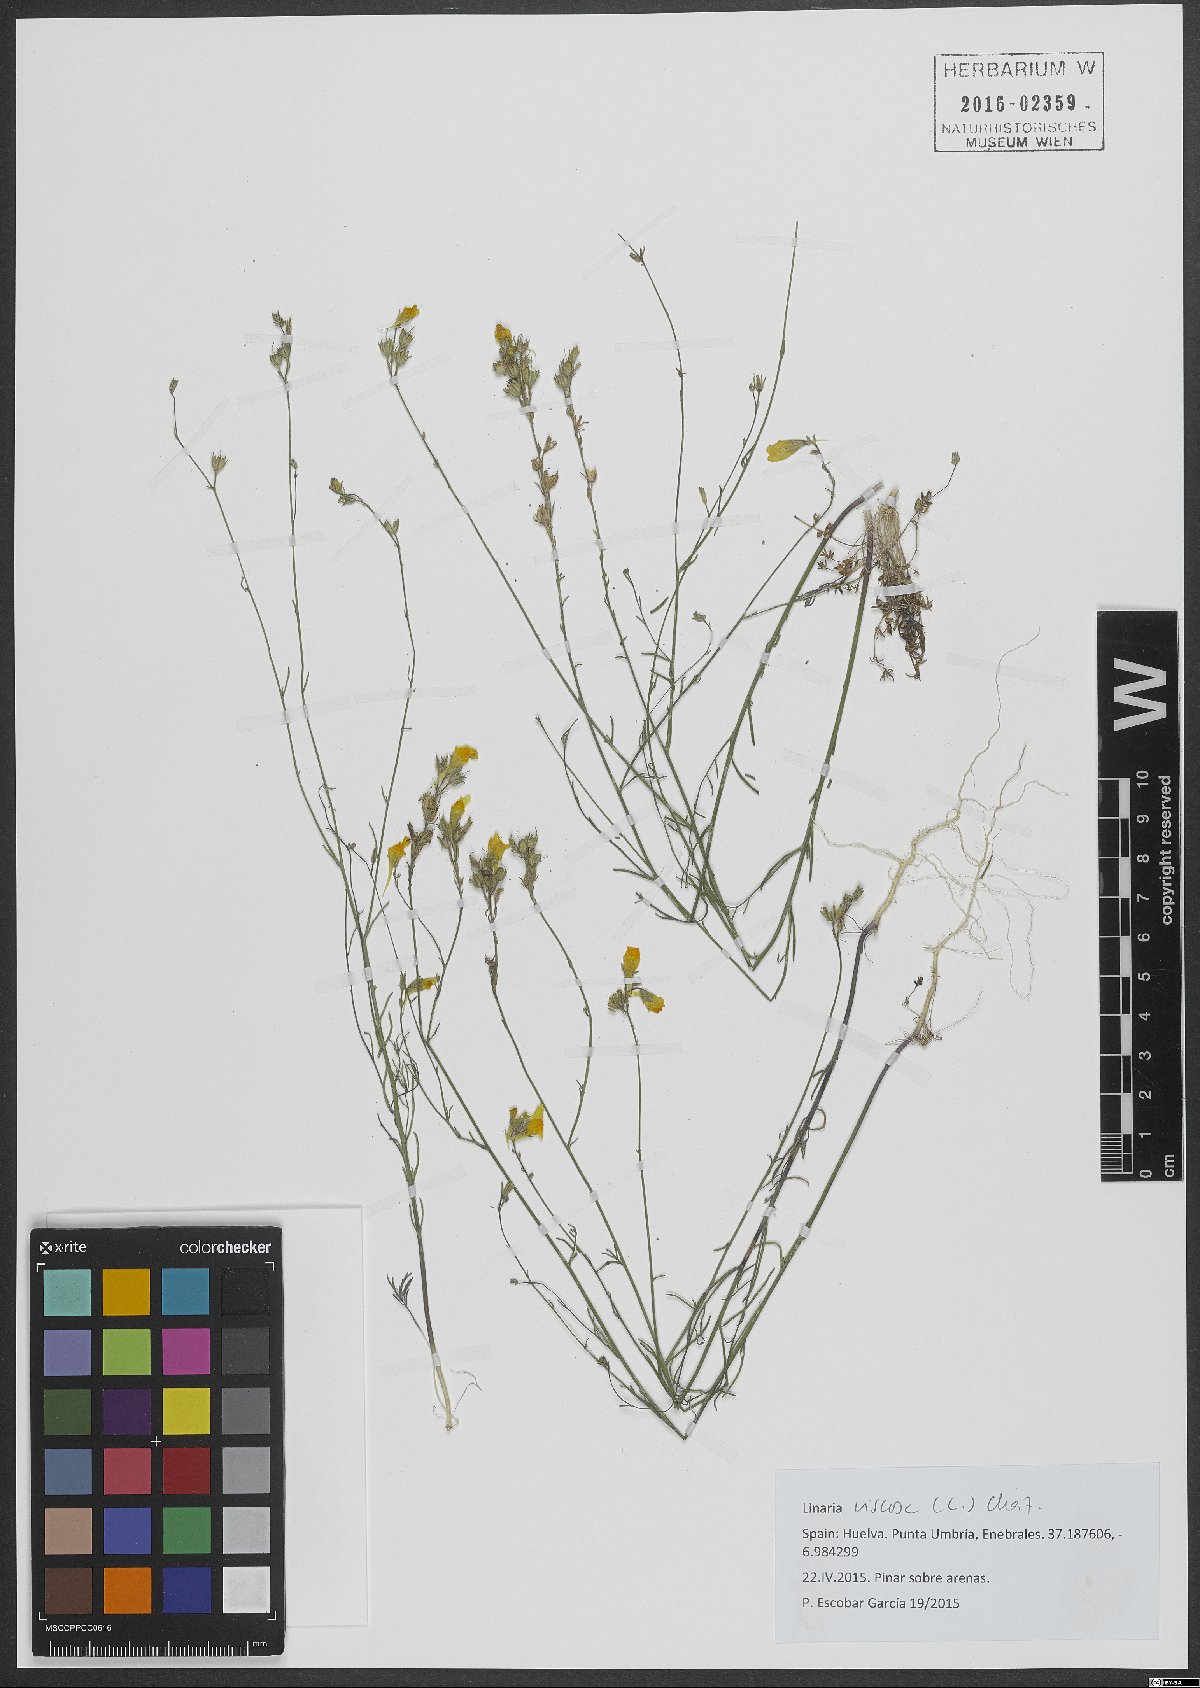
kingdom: Plantae
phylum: Tracheophyta
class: Magnoliopsida
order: Lamiales
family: Plantaginaceae
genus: Linaria
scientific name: Linaria viscosa
